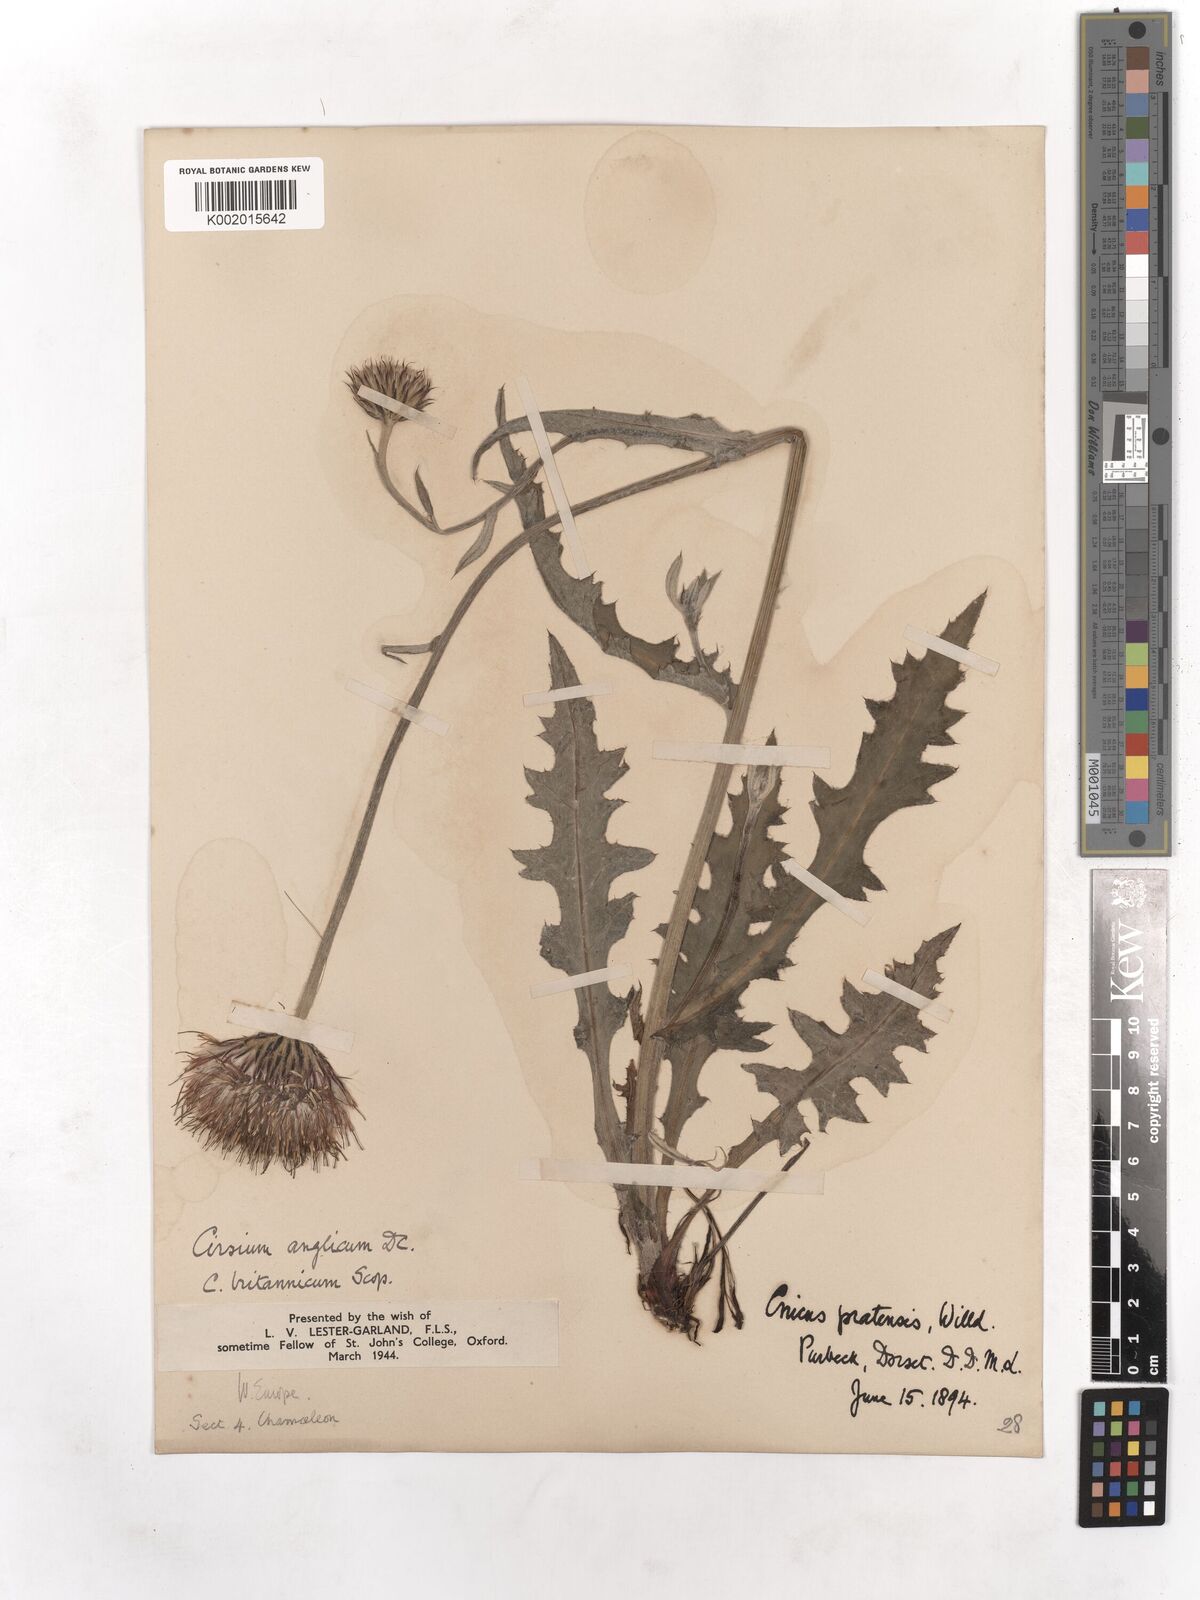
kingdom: Plantae
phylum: Tracheophyta
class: Magnoliopsida
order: Asterales
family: Asteraceae
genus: Cirsium
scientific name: Cirsium
